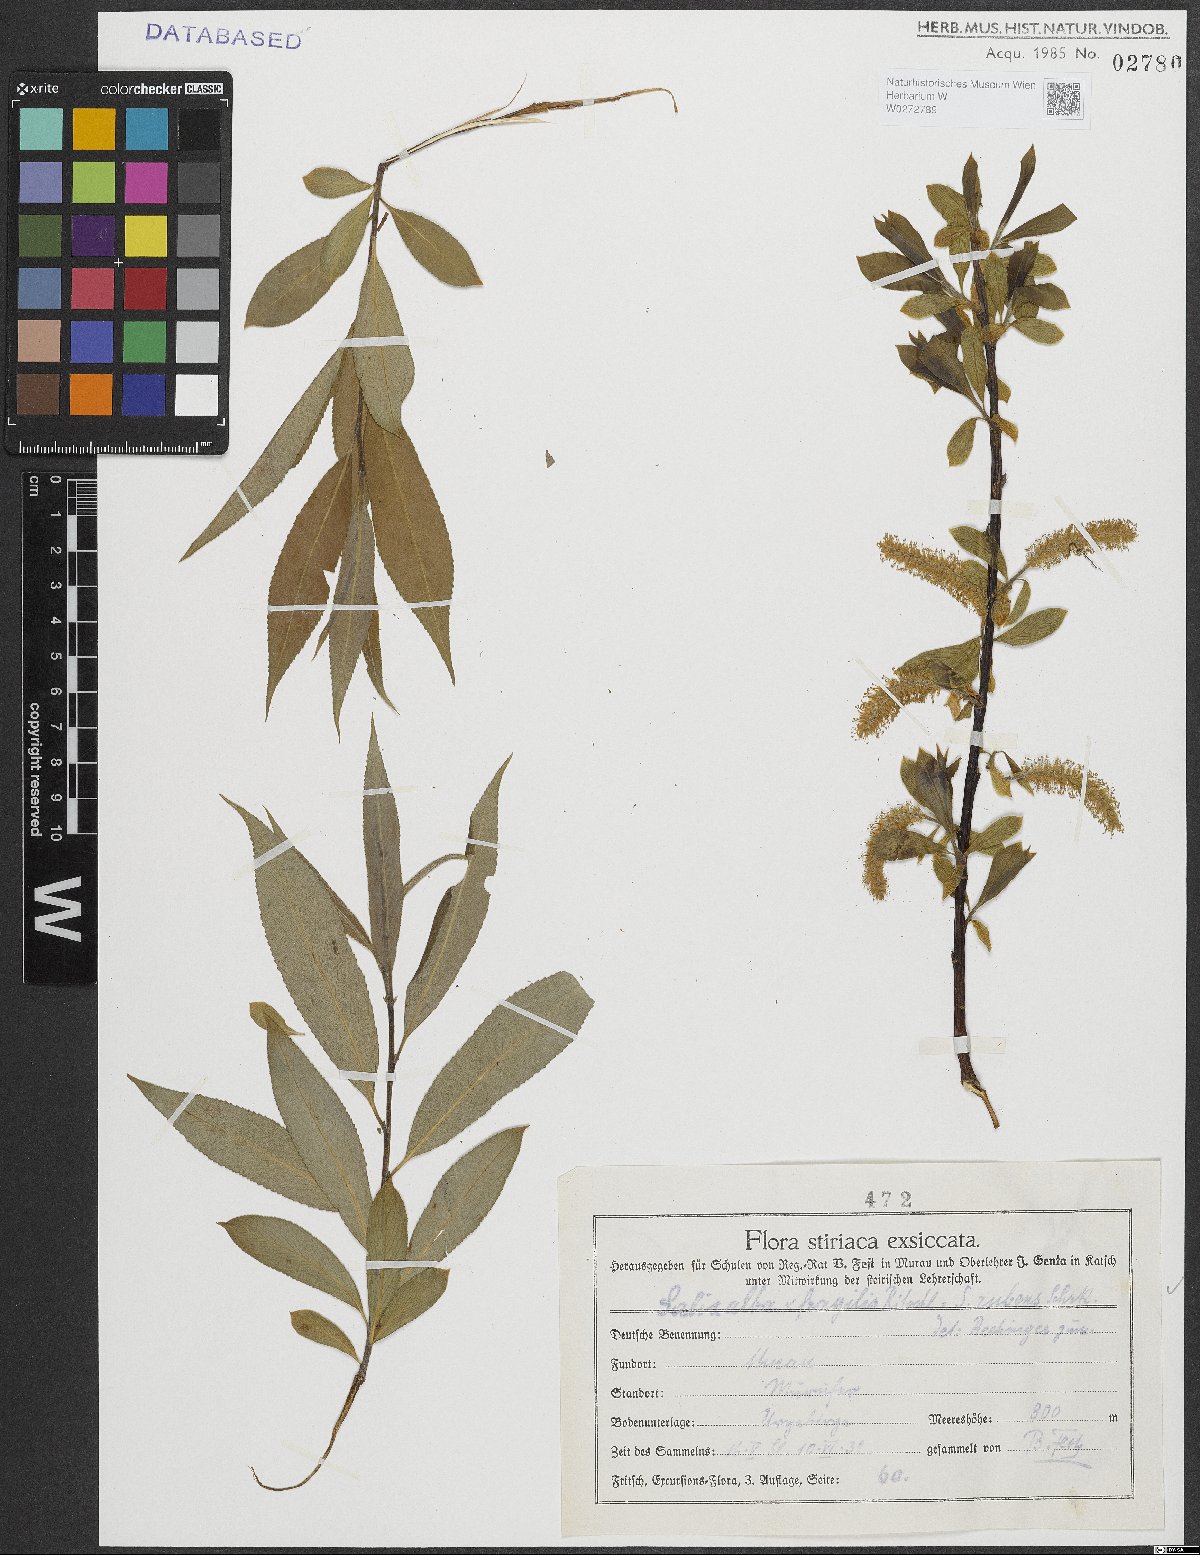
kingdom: Plantae
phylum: Tracheophyta
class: Magnoliopsida
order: Malpighiales
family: Salicaceae
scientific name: Salicaceae
